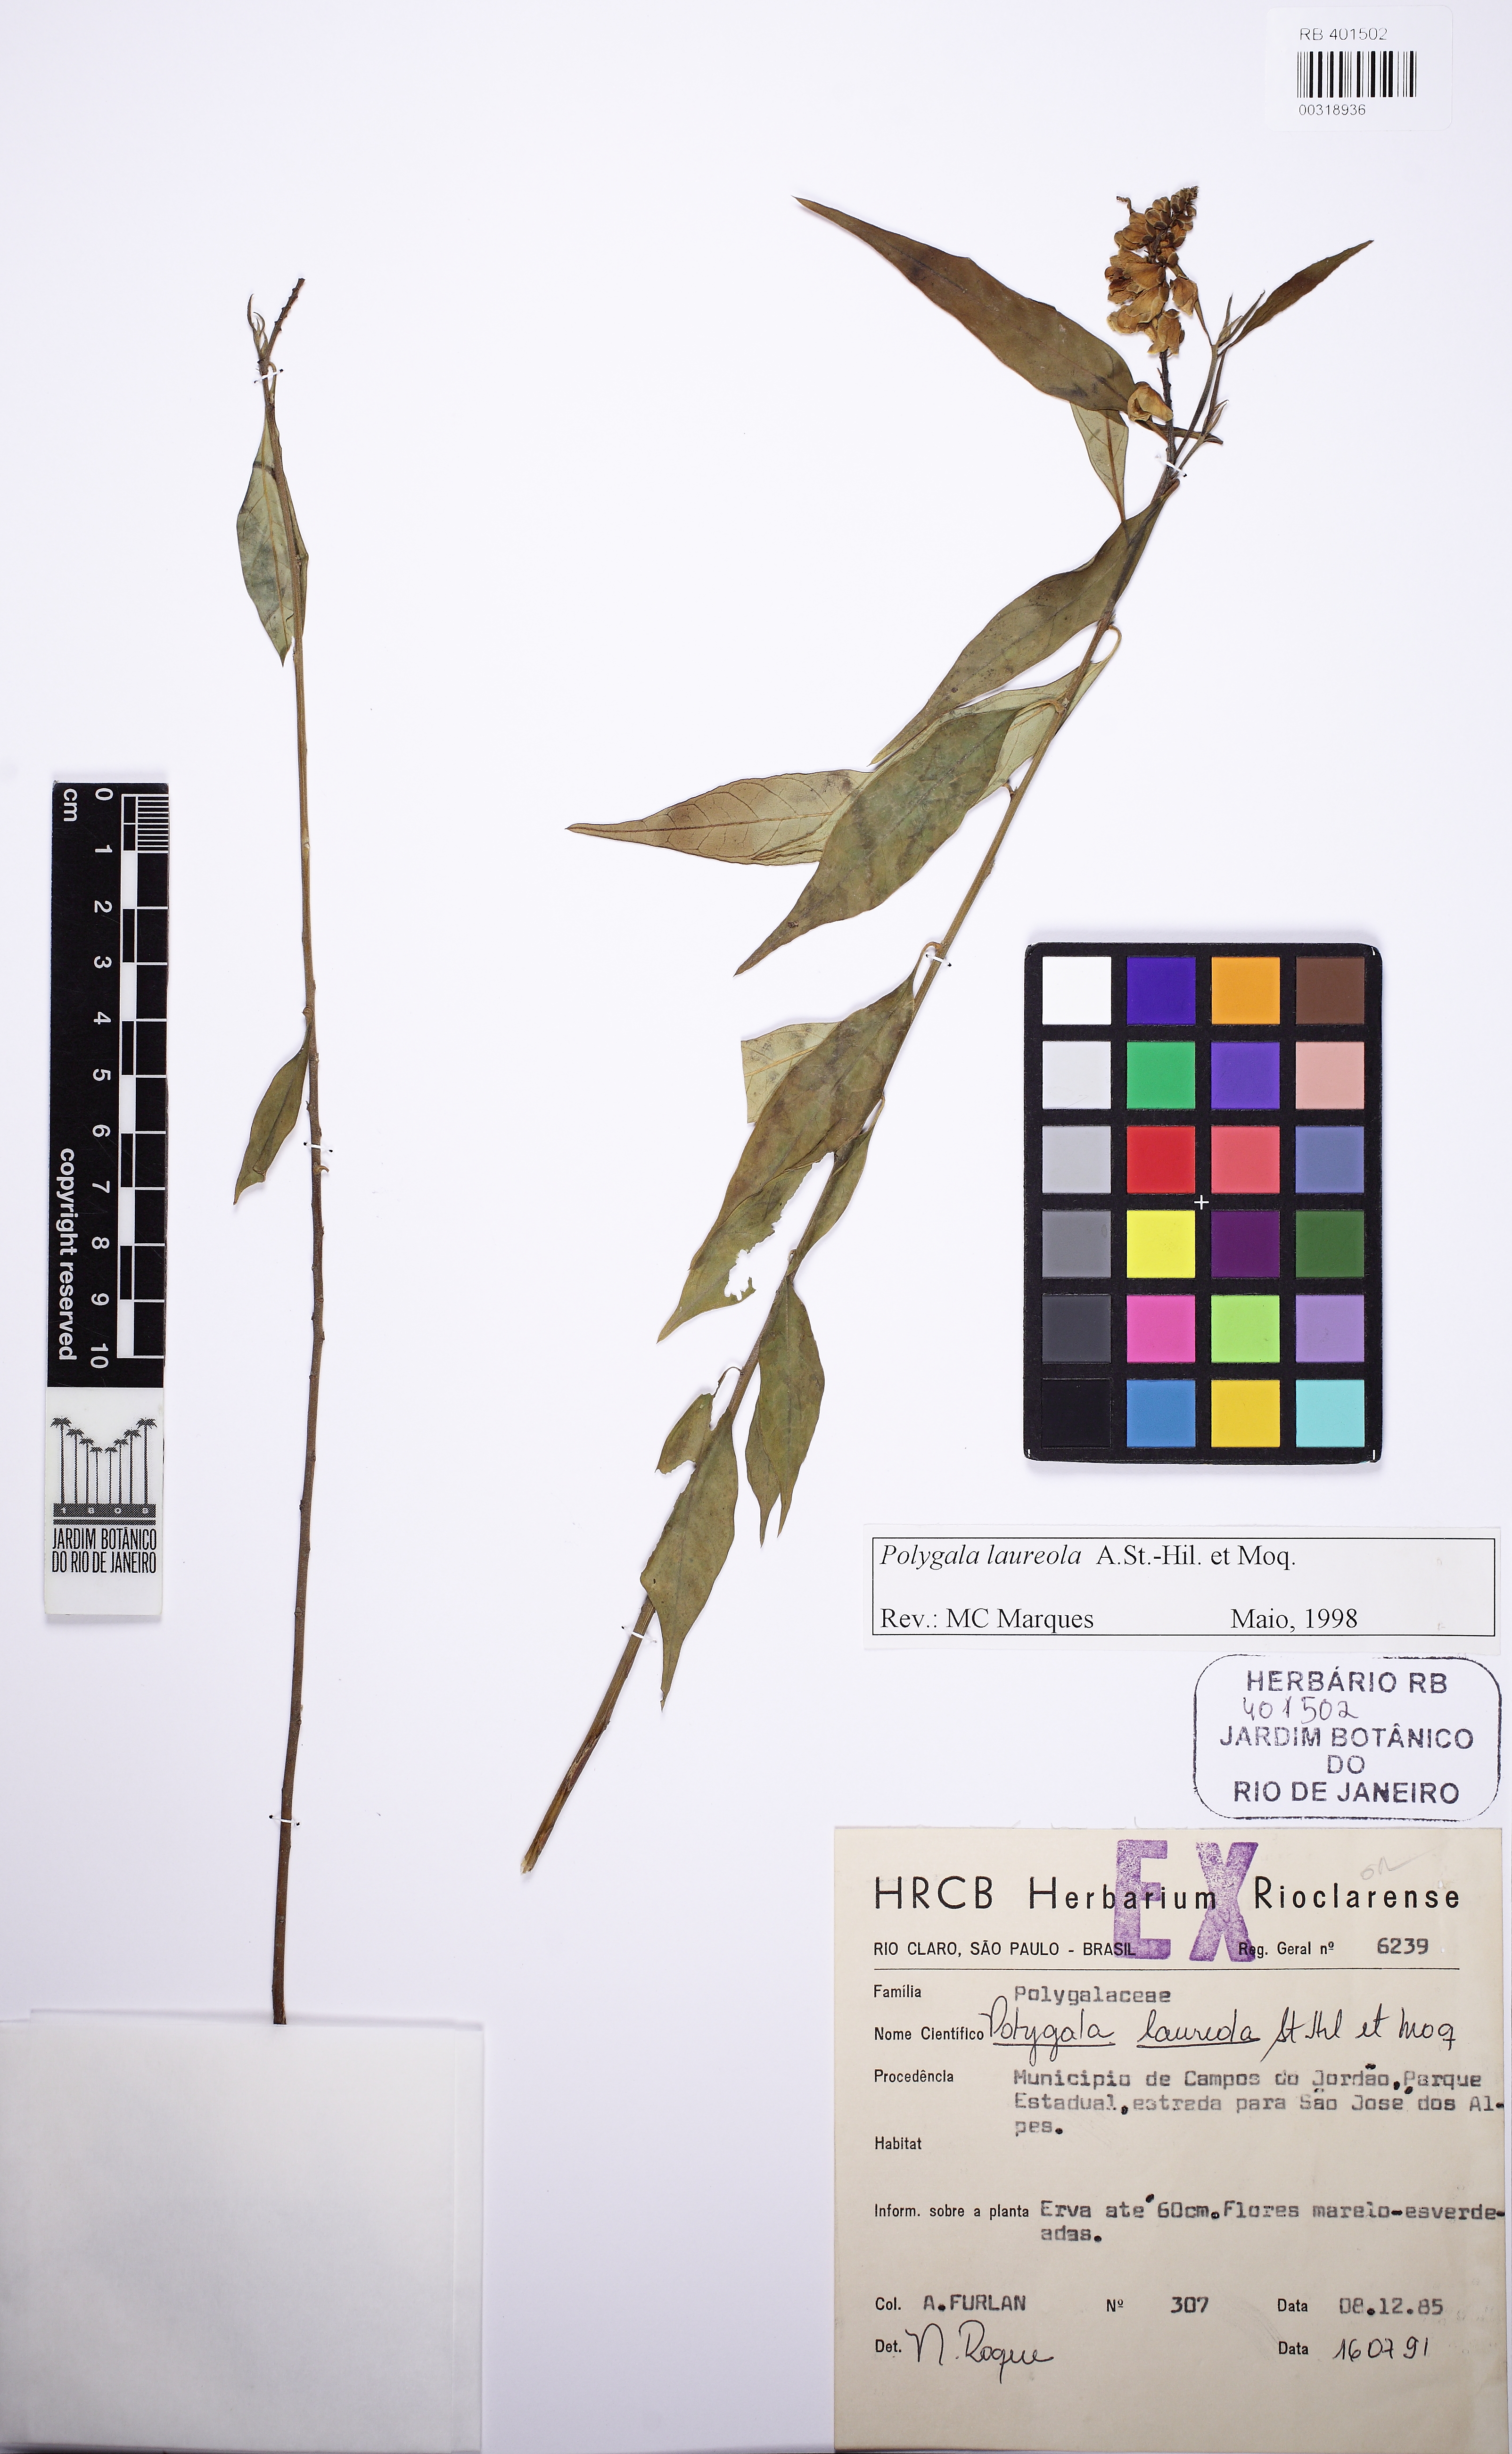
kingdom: Plantae
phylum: Tracheophyta
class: Magnoliopsida
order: Fabales
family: Polygalaceae
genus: Caamembeca
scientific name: Caamembeca salicifolia
